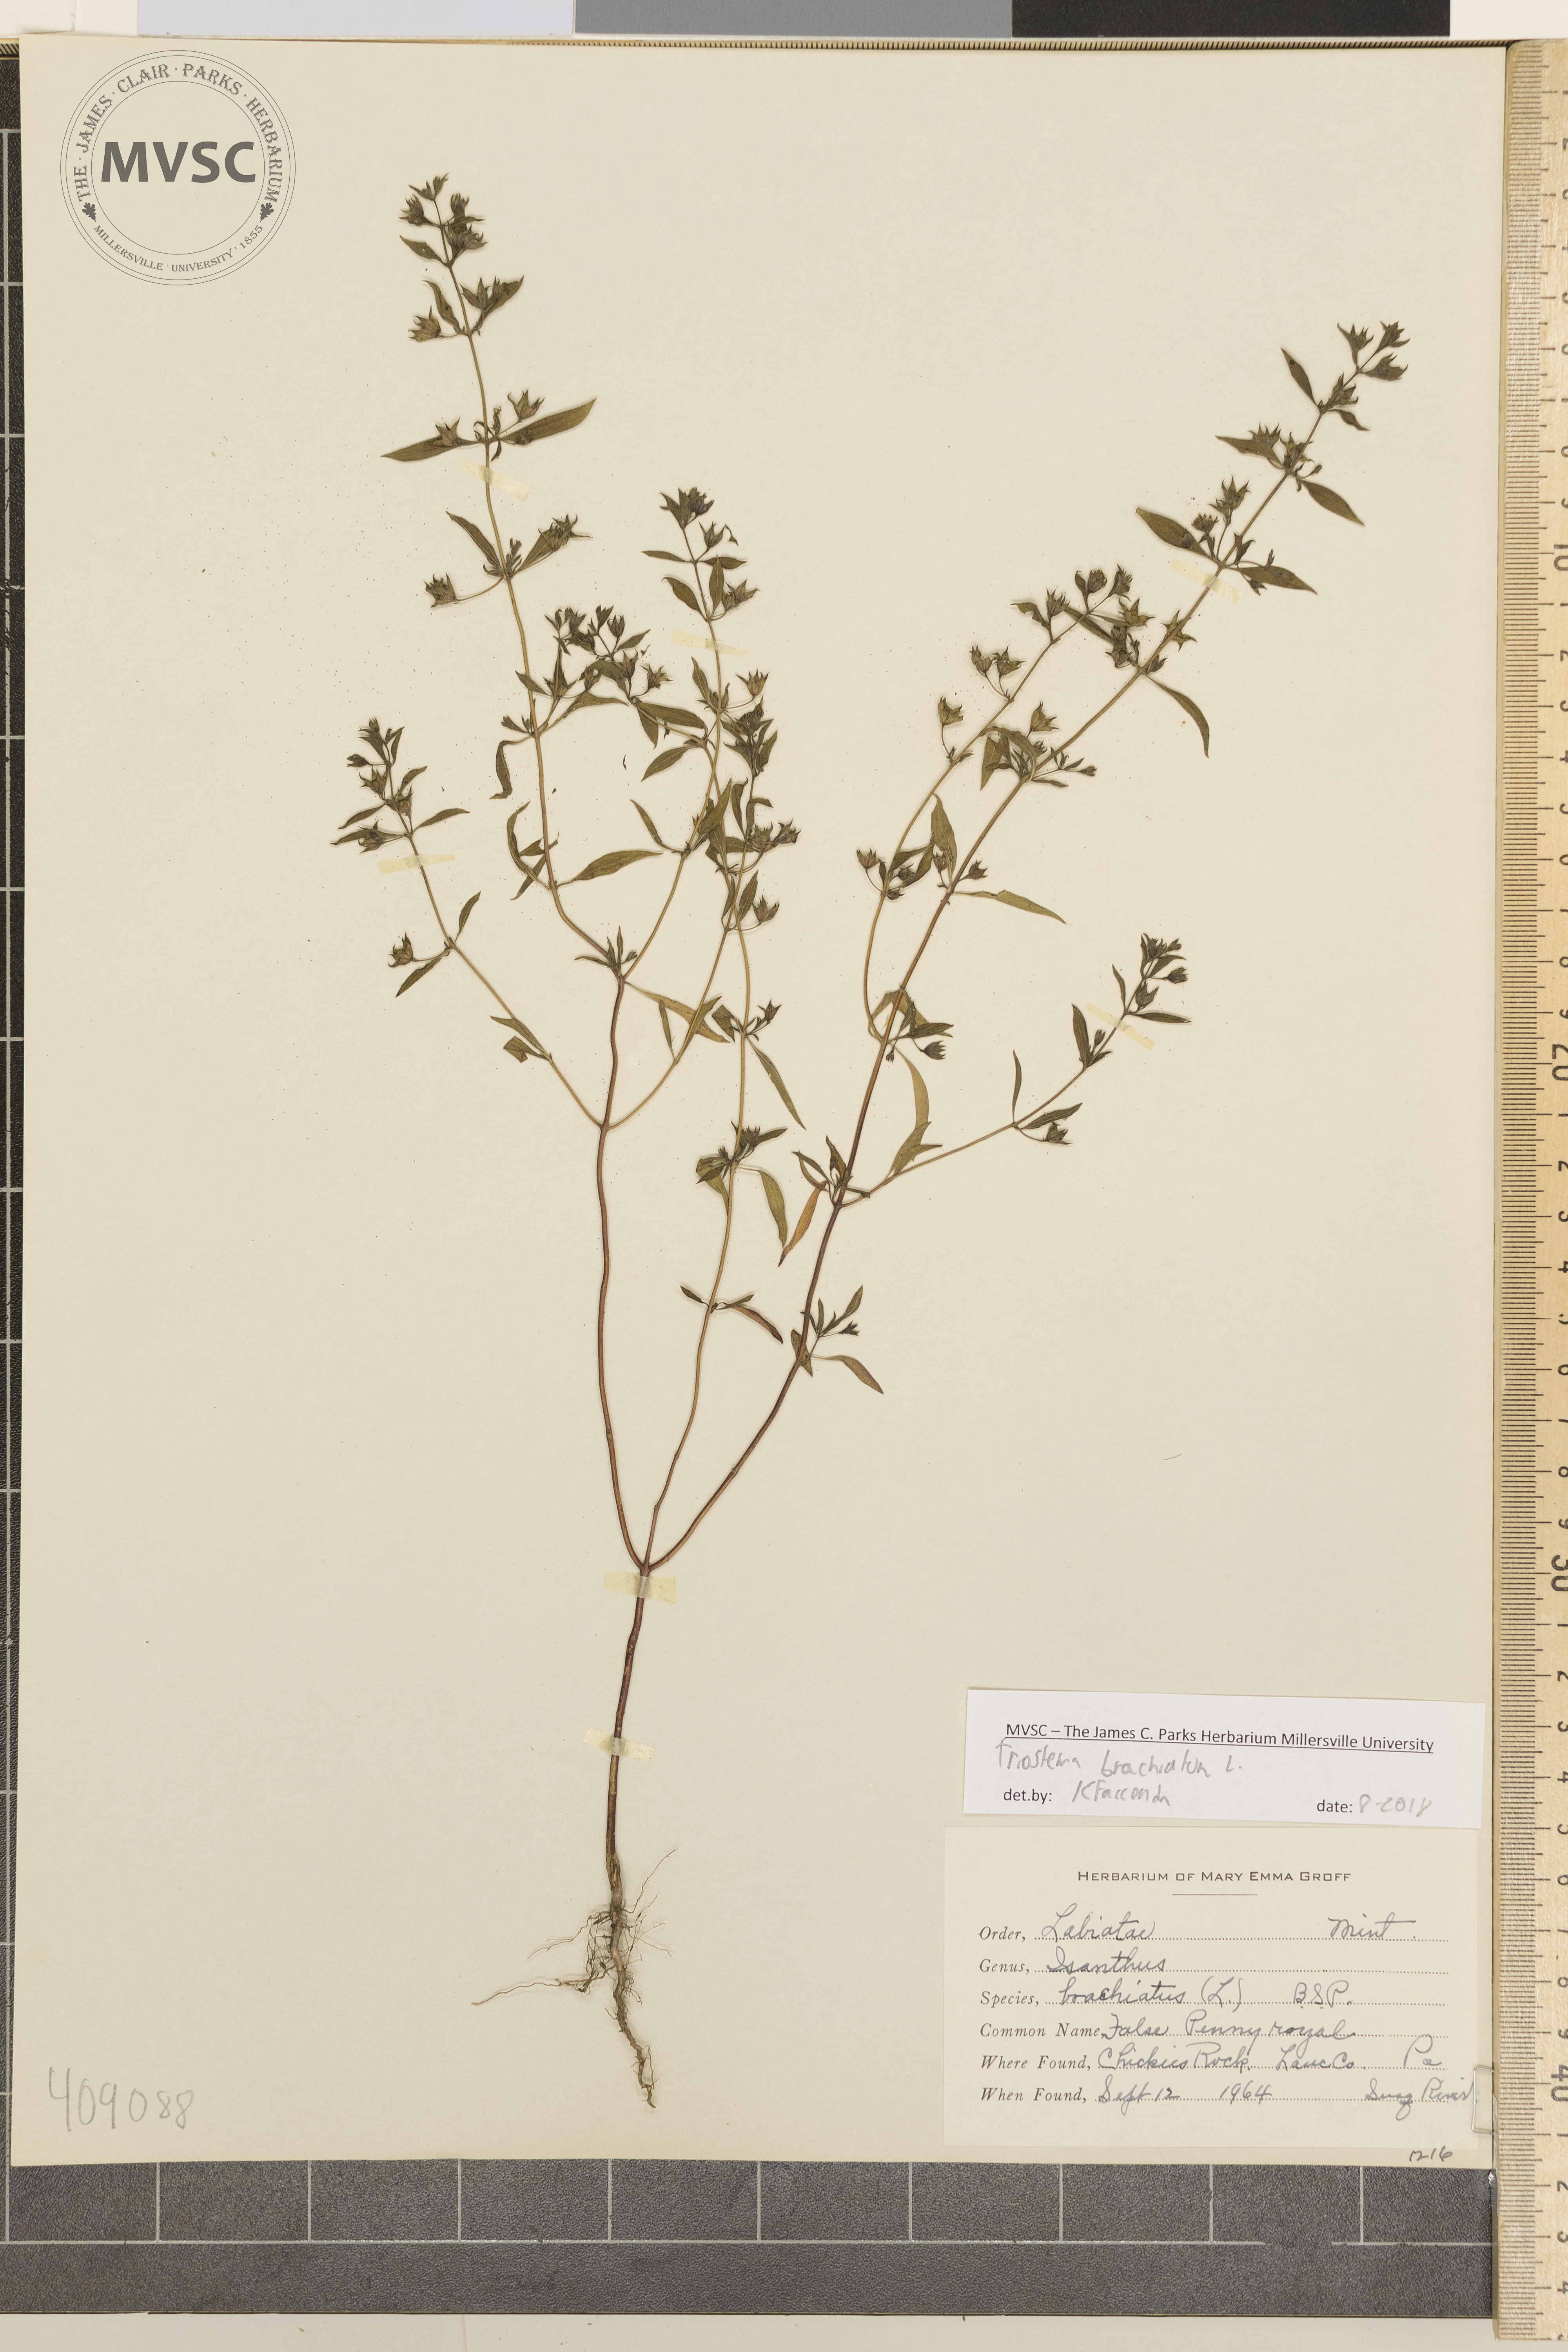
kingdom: Plantae
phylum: Tracheophyta
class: Magnoliopsida
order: Lamiales
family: Lamiaceae
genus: Trichostema
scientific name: Trichostema brachiatum
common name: False pennyroyal
